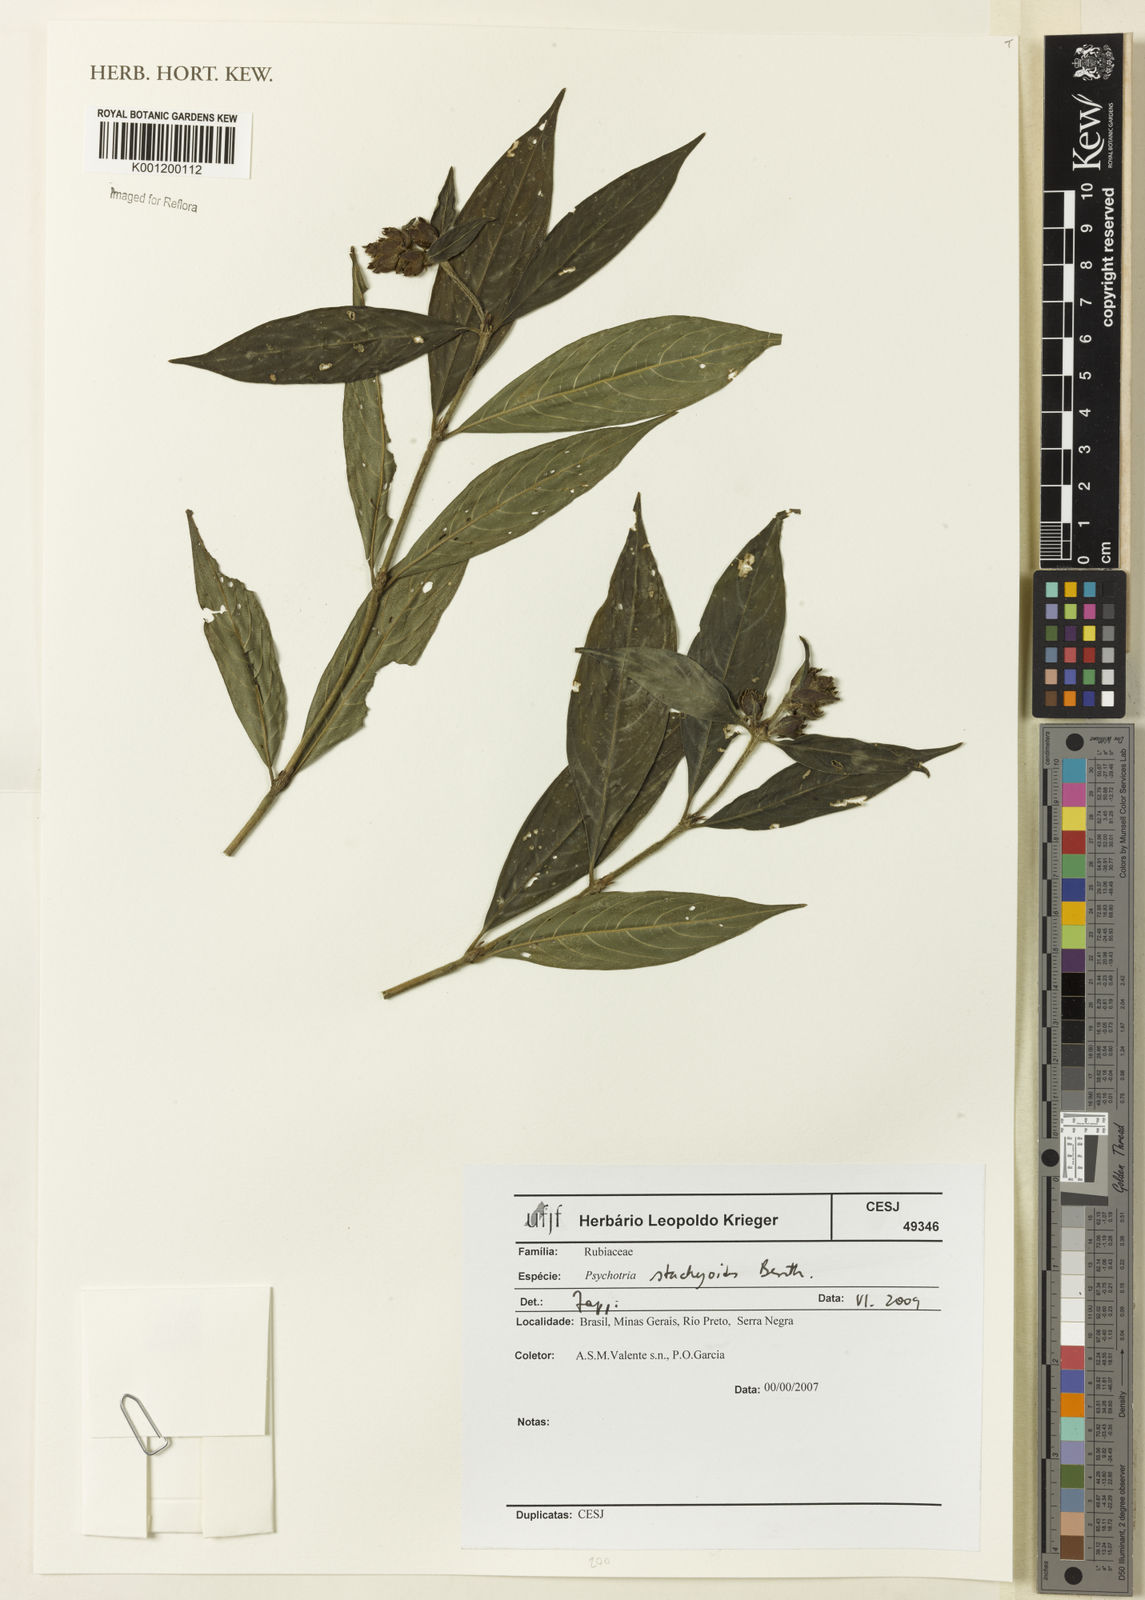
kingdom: Plantae
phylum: Tracheophyta
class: Magnoliopsida
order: Gentianales
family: Rubiaceae
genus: Psychotria
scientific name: Psychotria stachyoides
